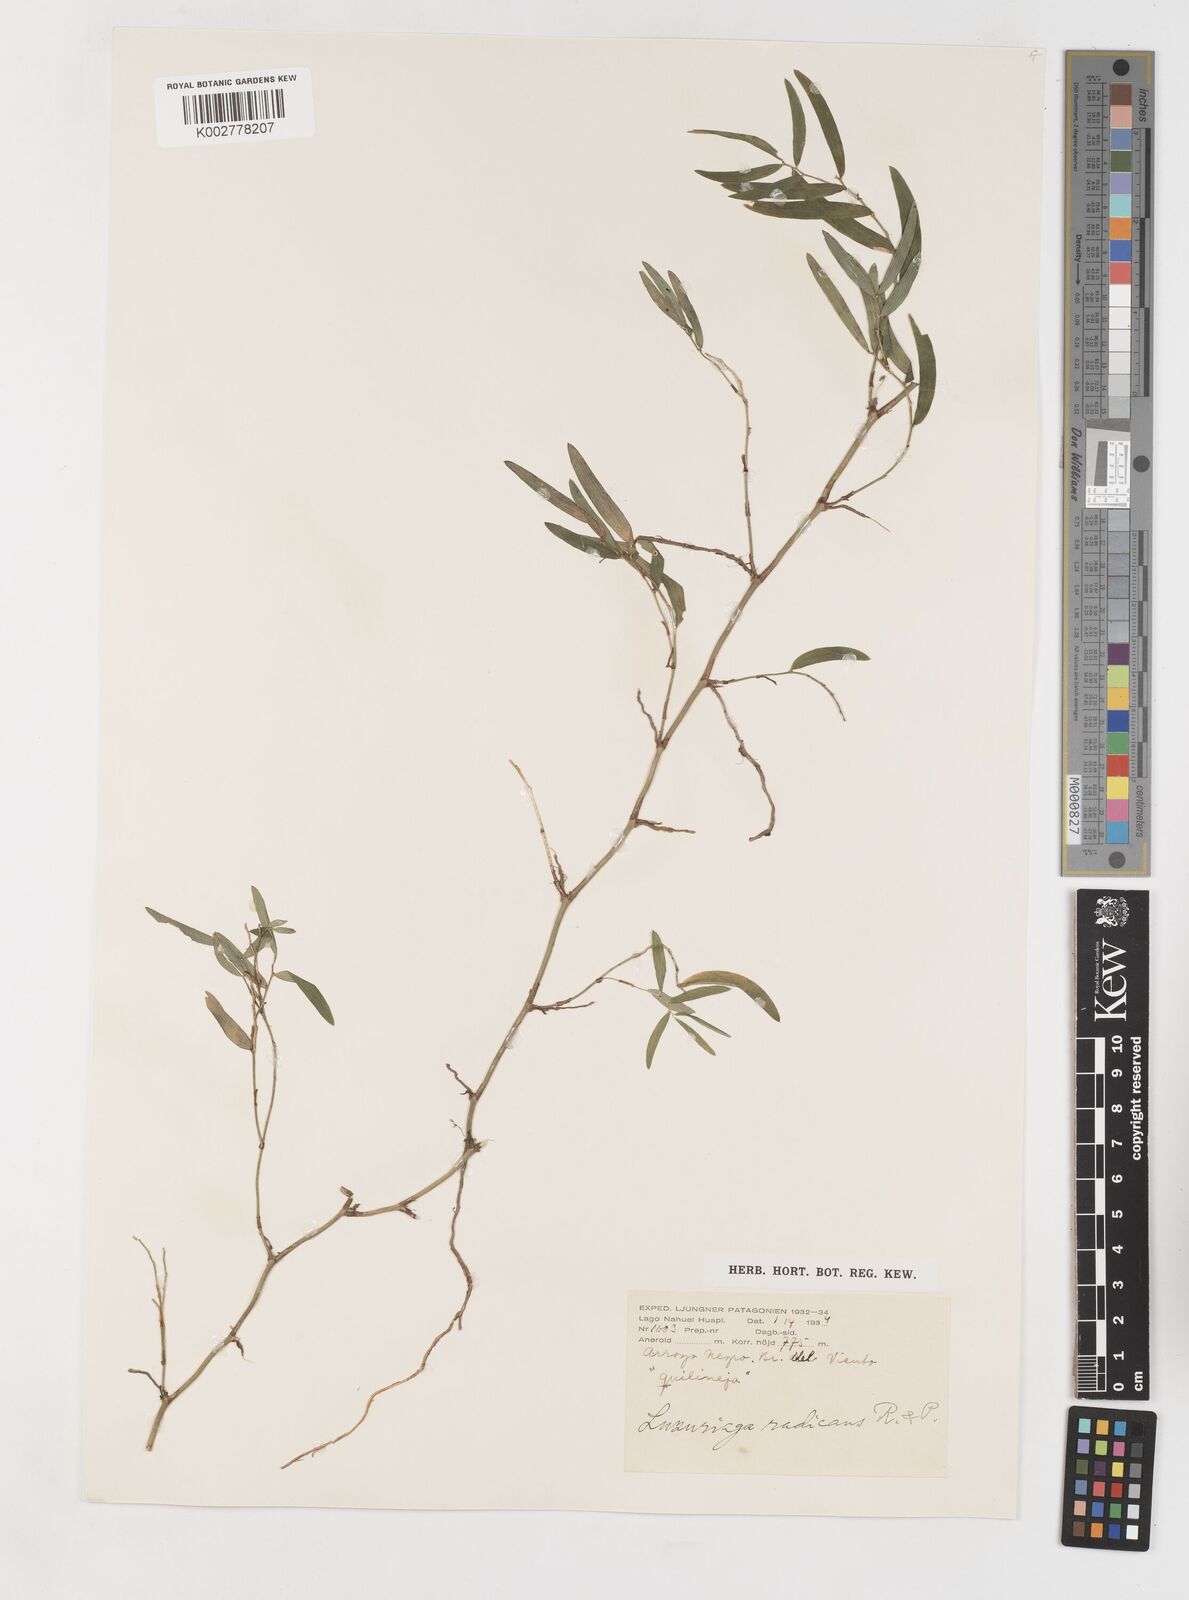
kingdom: Plantae
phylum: Tracheophyta
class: Liliopsida
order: Liliales
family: Alstroemeriaceae
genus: Luzuriaga
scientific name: Luzuriaga radicans
